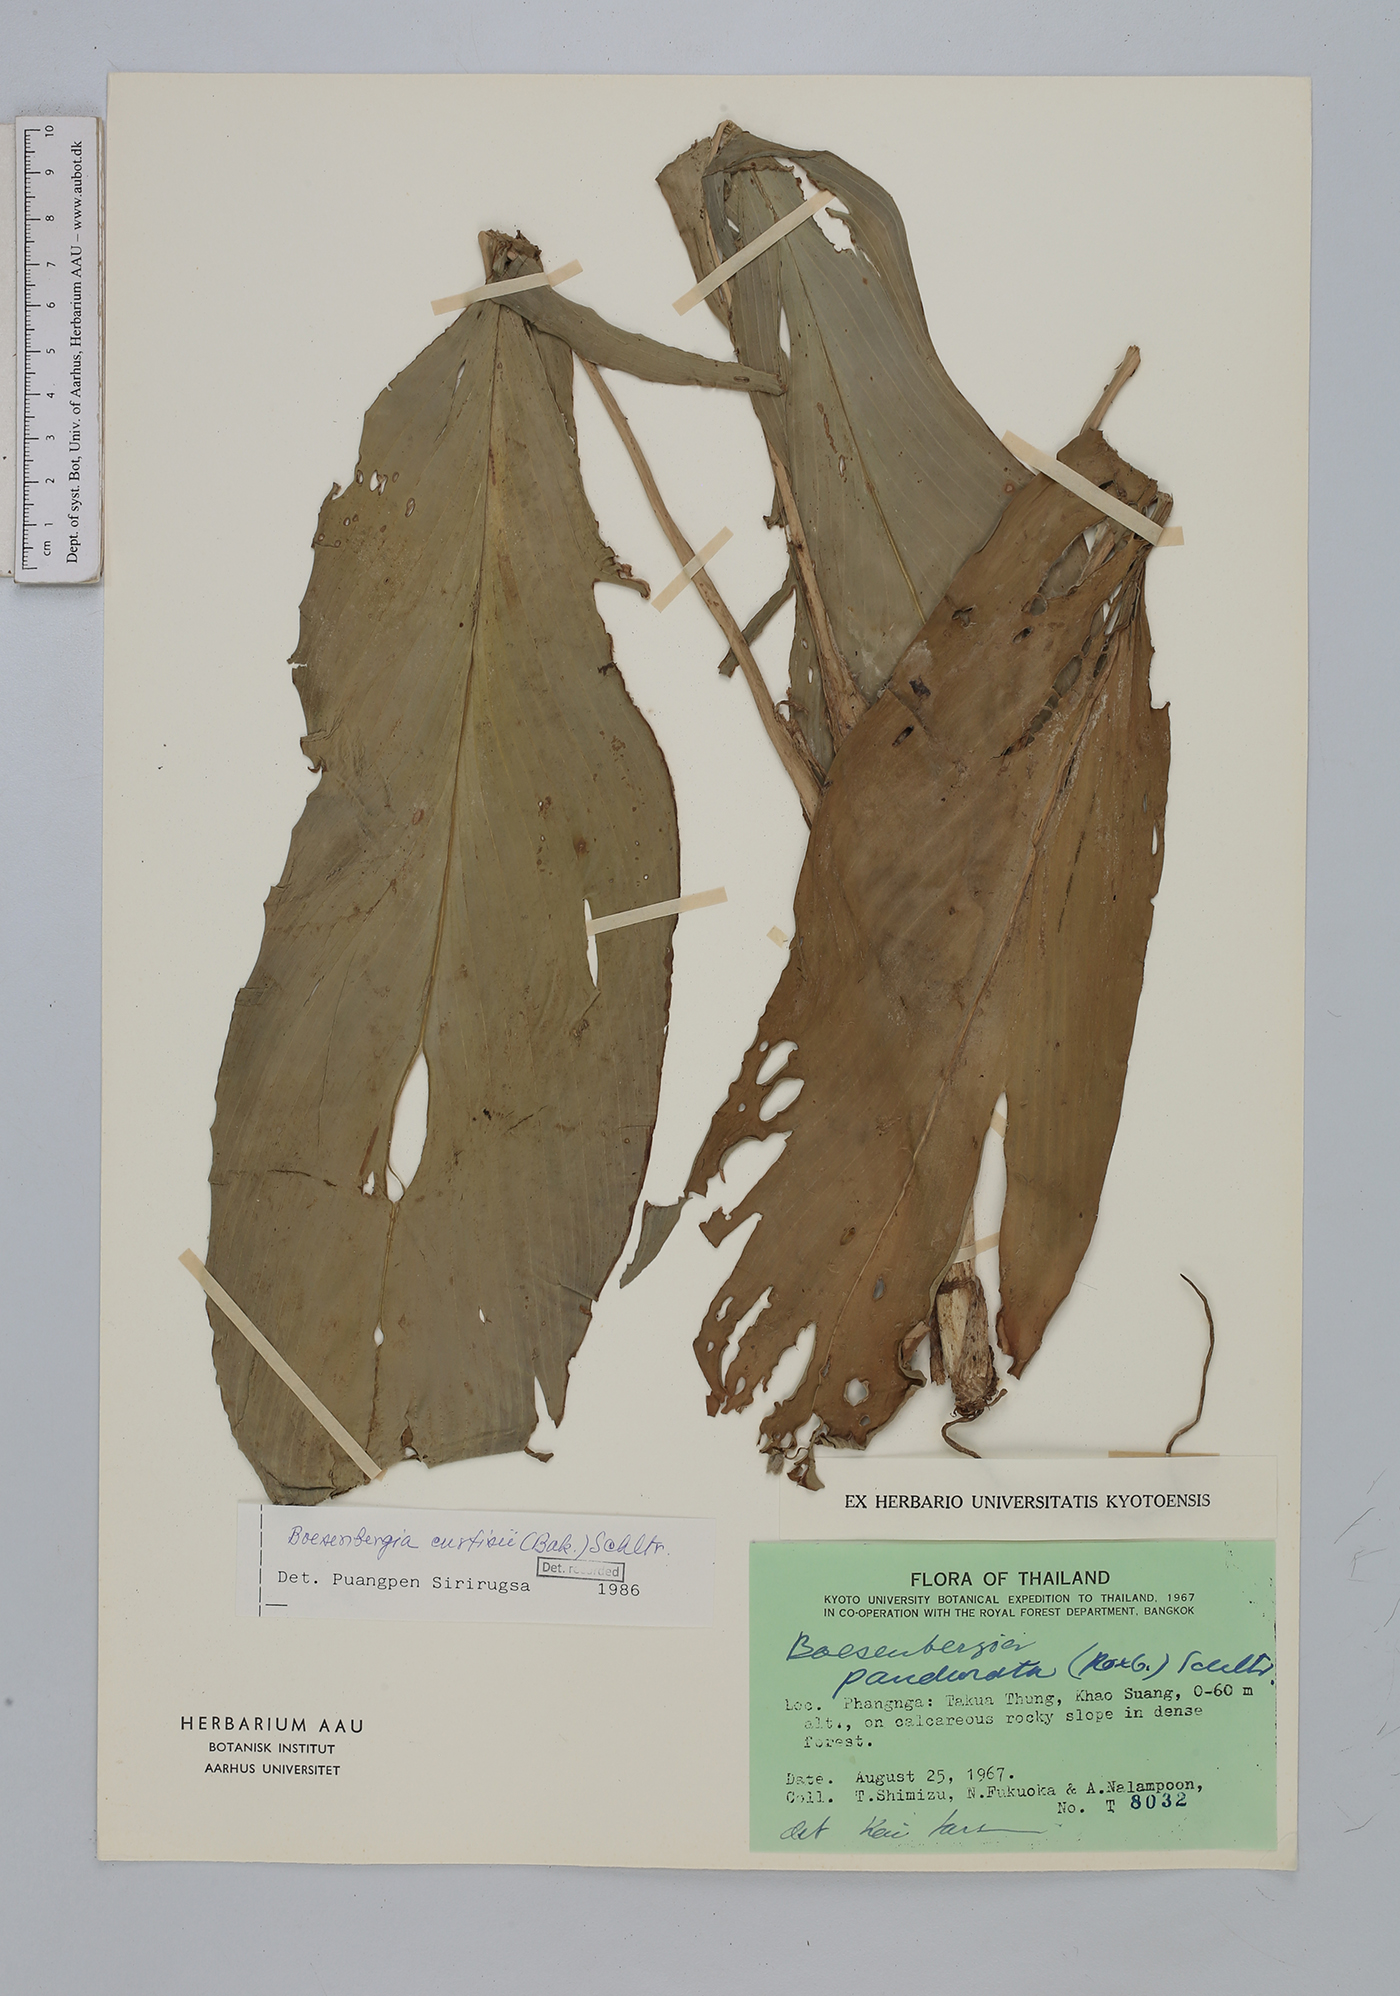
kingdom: Plantae
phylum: Tracheophyta
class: Liliopsida
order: Zingiberales
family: Zingiberaceae
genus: Boesenbergia
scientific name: Boesenbergia curtisii
